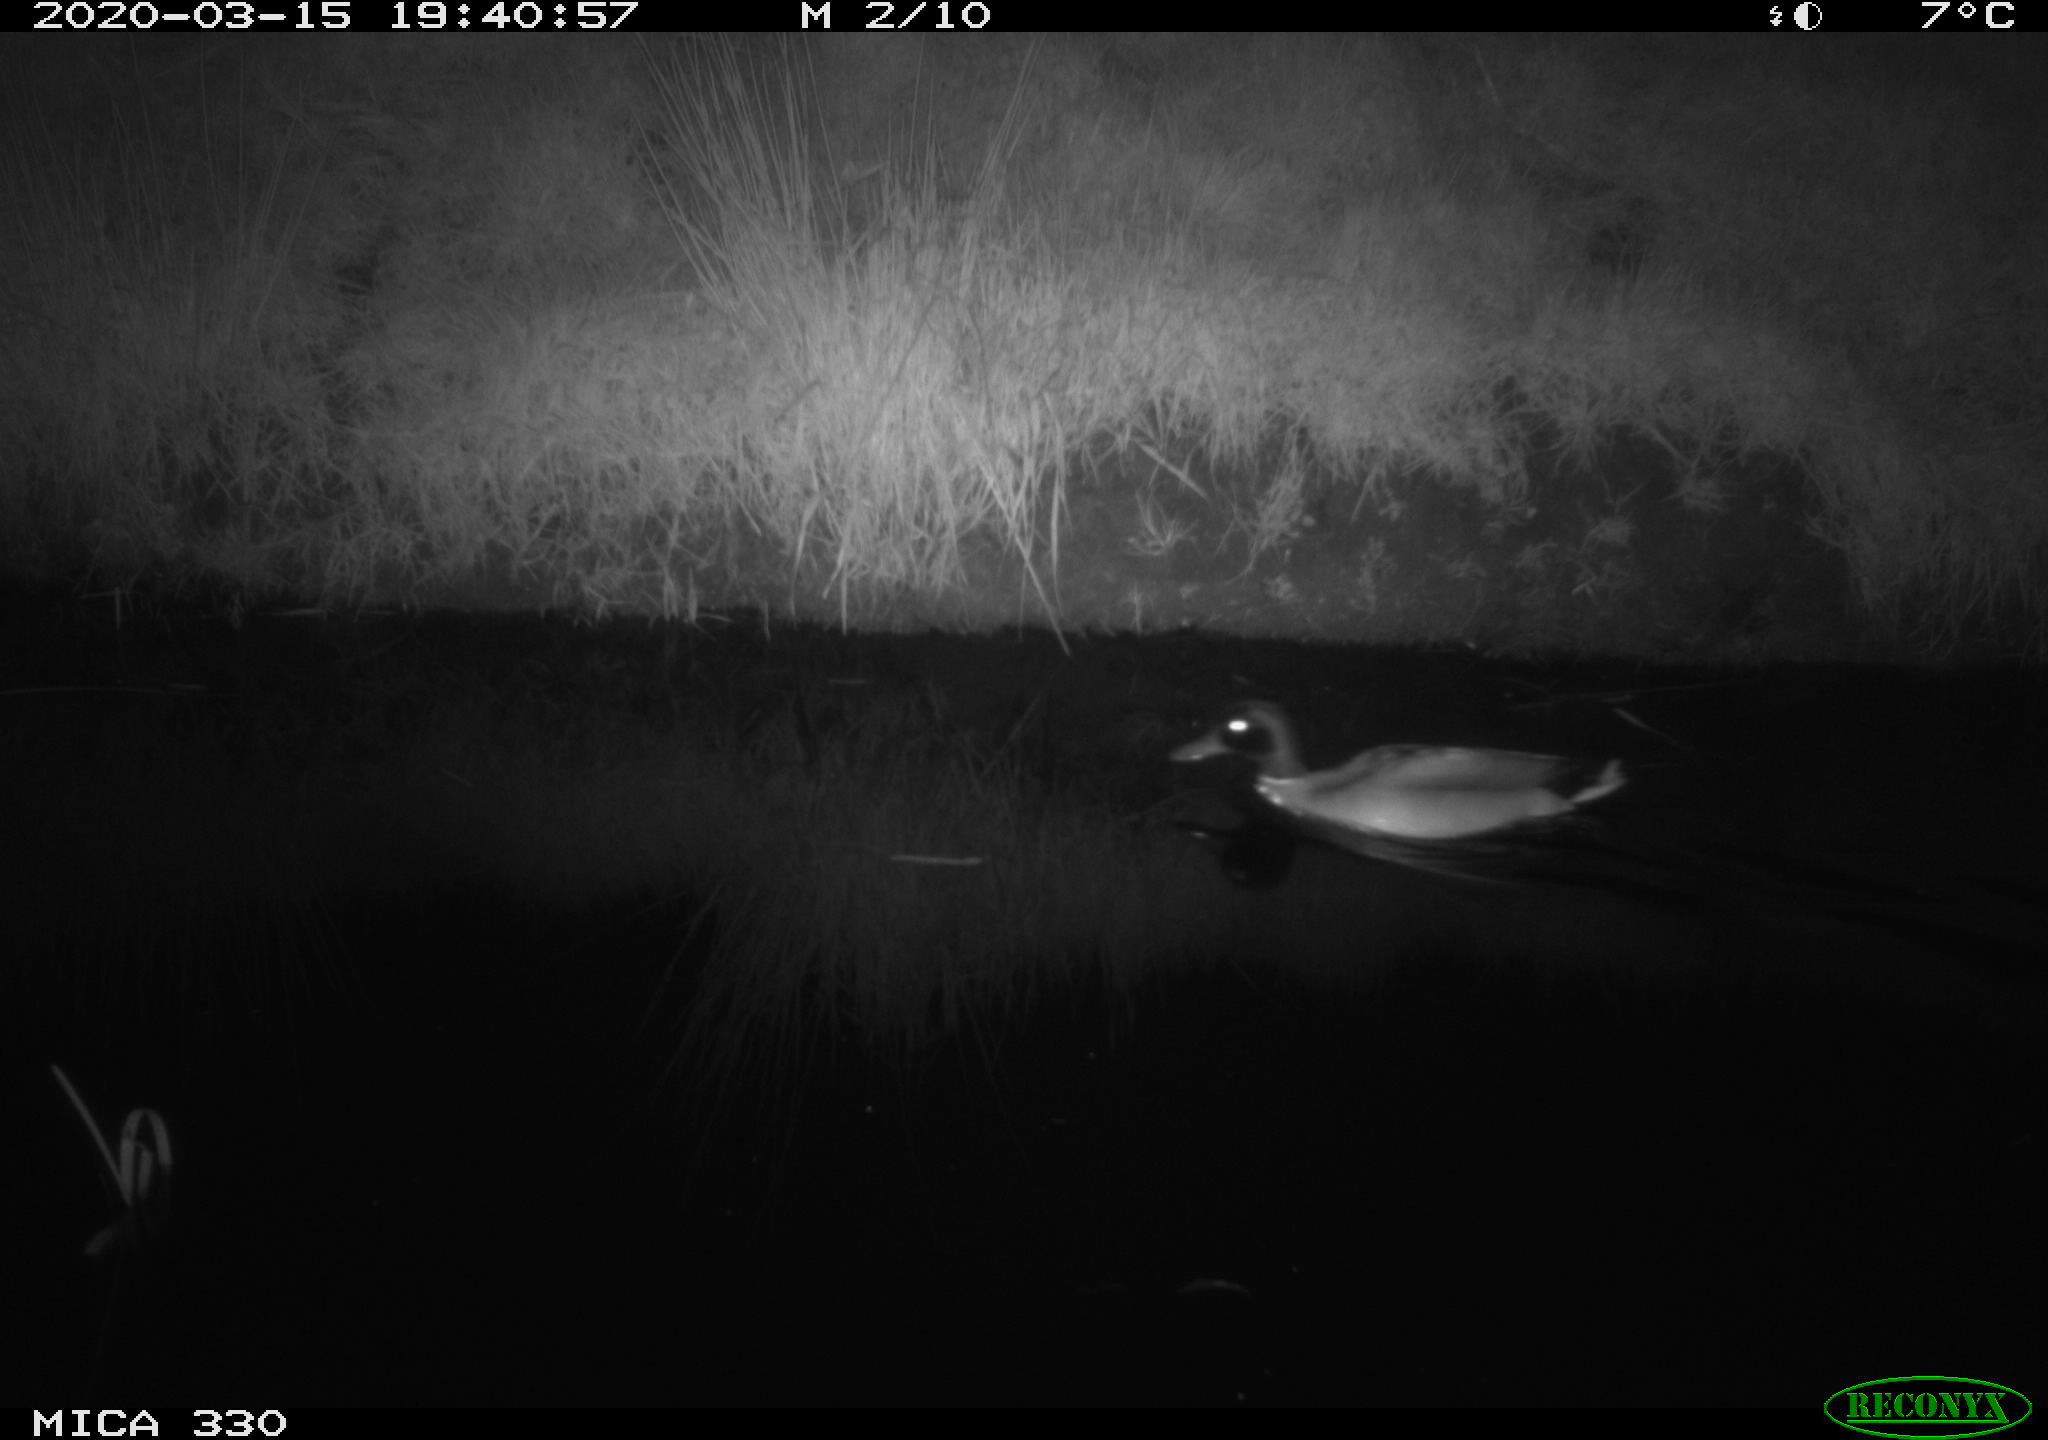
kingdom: Animalia
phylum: Chordata
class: Aves
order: Anseriformes
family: Anatidae
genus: Anas
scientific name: Anas platyrhynchos
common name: Mallard
